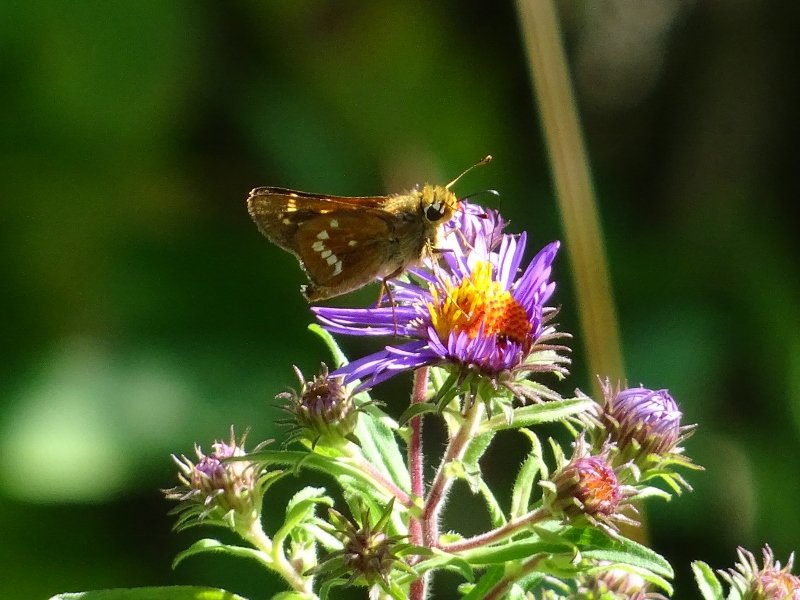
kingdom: Animalia
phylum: Arthropoda
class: Insecta
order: Lepidoptera
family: Hesperiidae
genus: Hesperia
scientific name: Hesperia leonardus
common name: Leonard's Skipper
